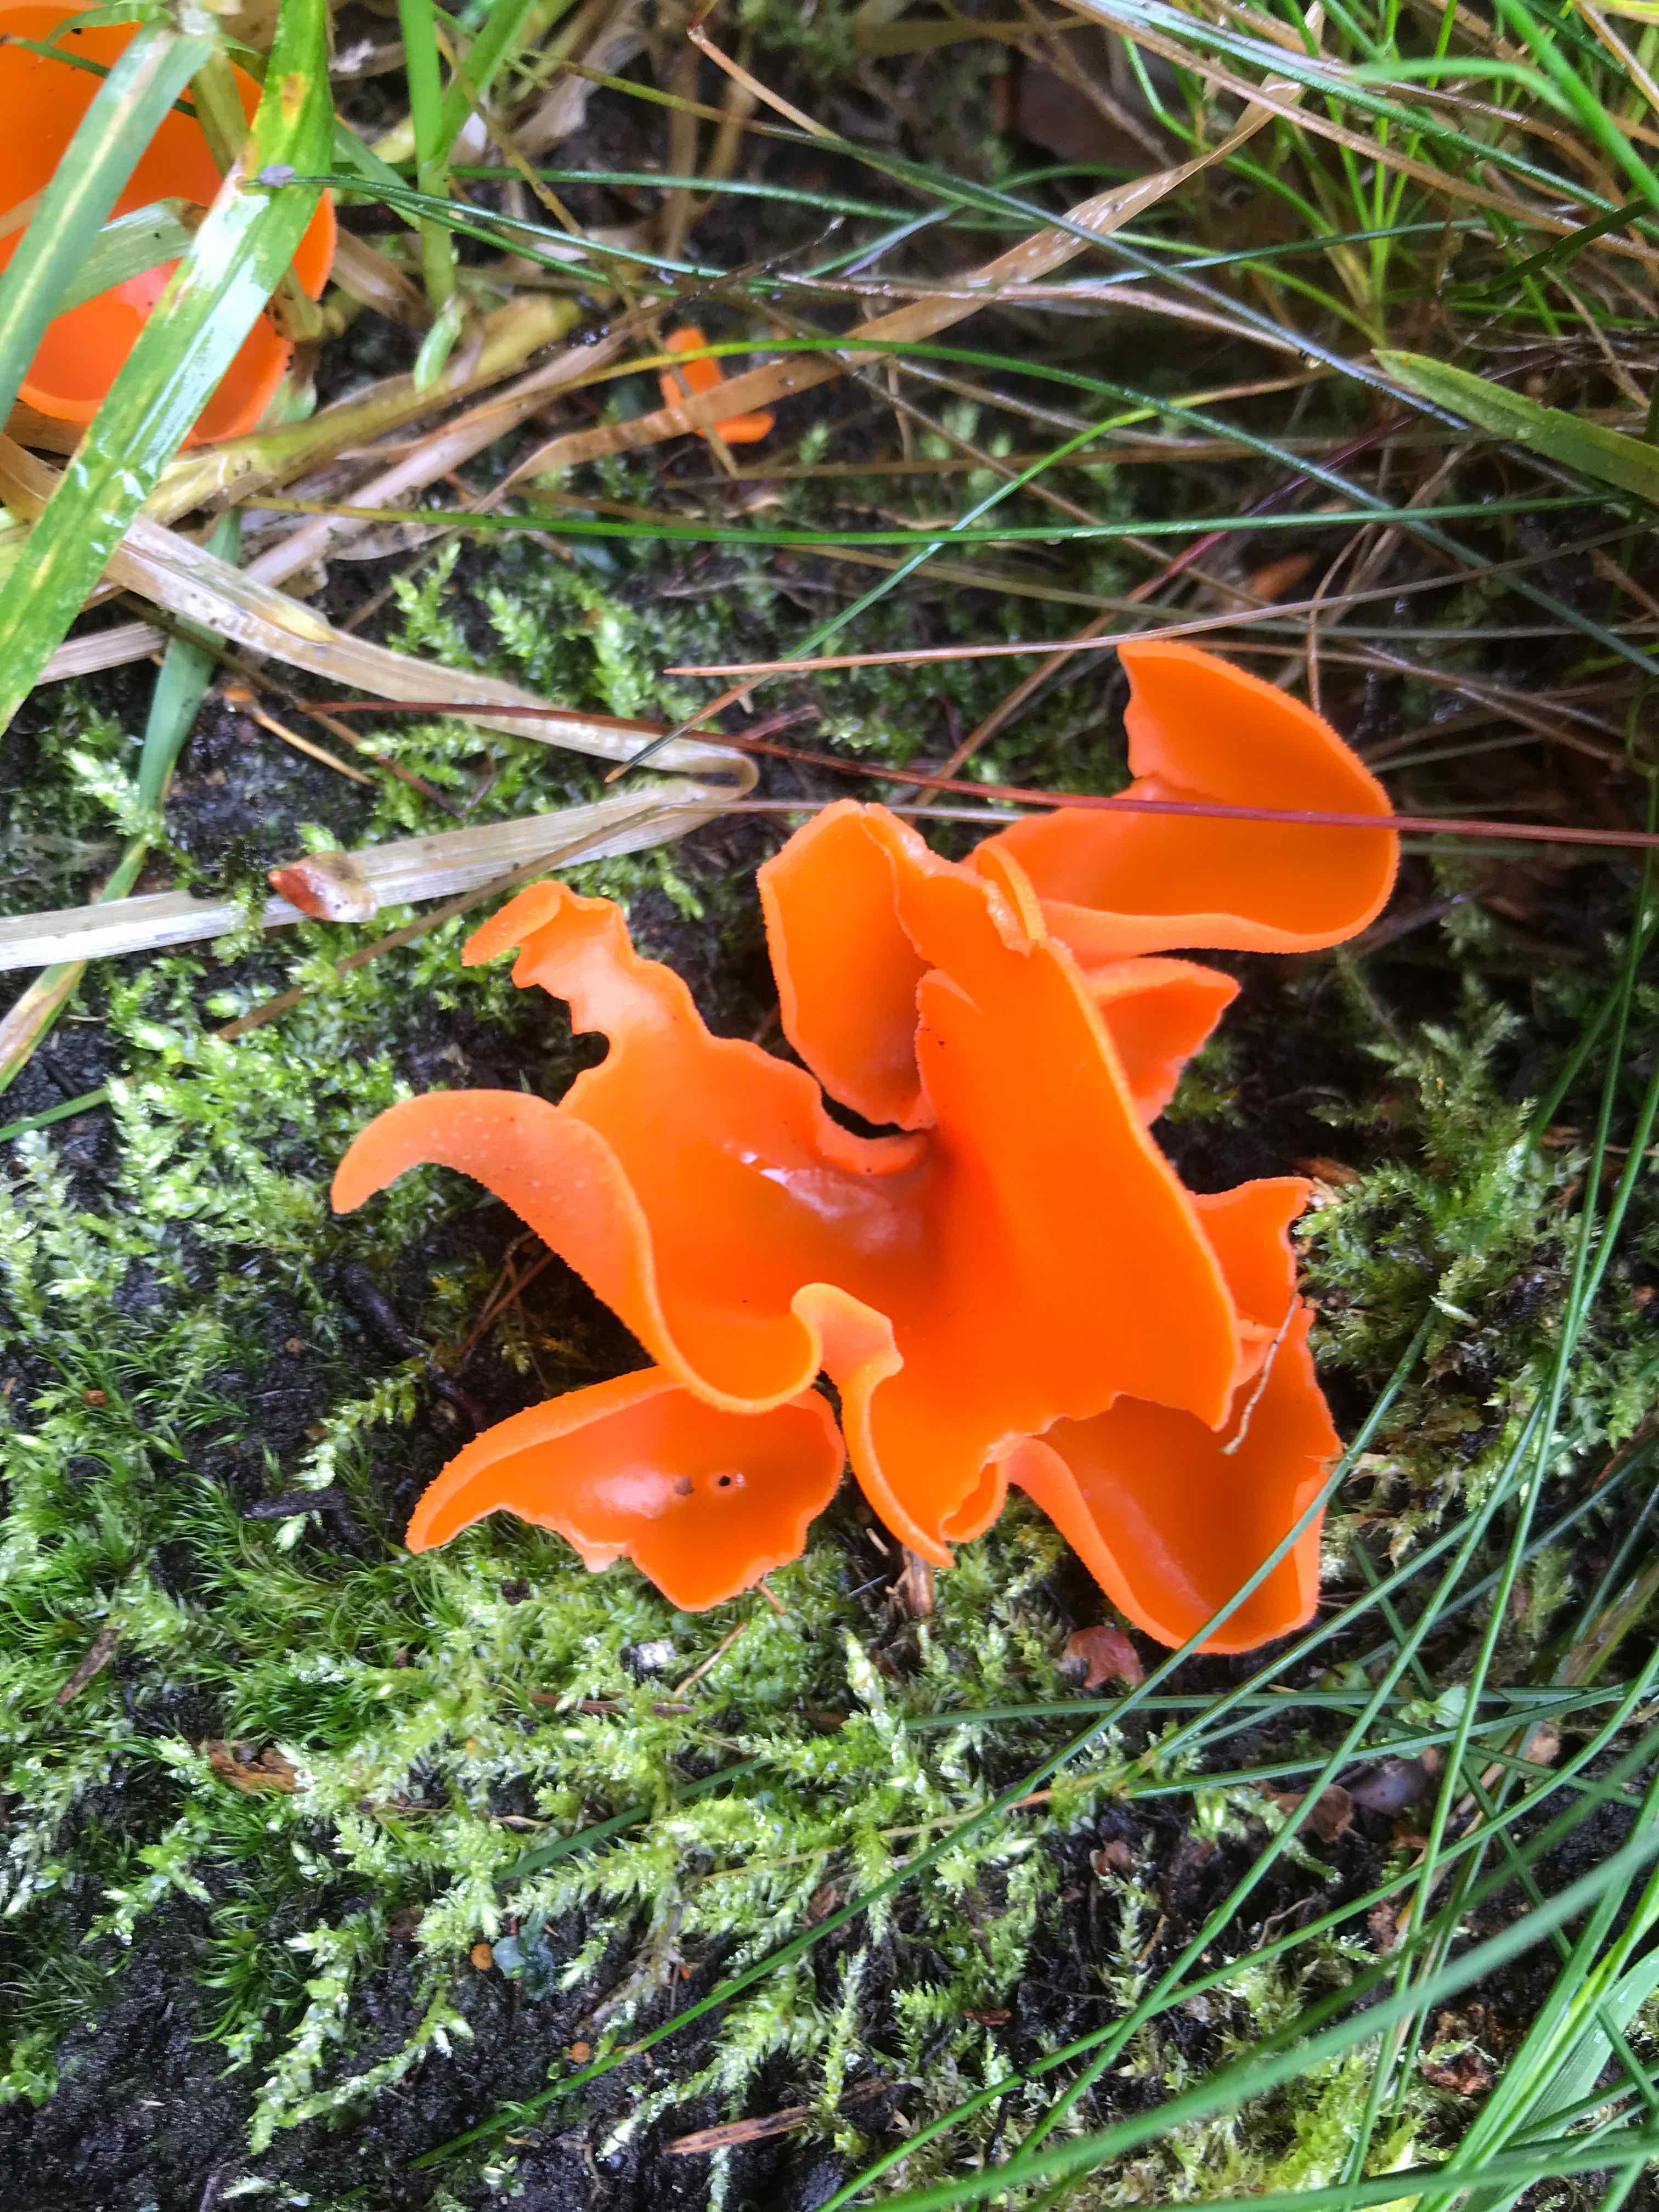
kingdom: Fungi
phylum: Ascomycota
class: Pezizomycetes
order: Pezizales
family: Pyronemataceae
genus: Aleuria
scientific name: Aleuria aurantia
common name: almindelig orangebæger
